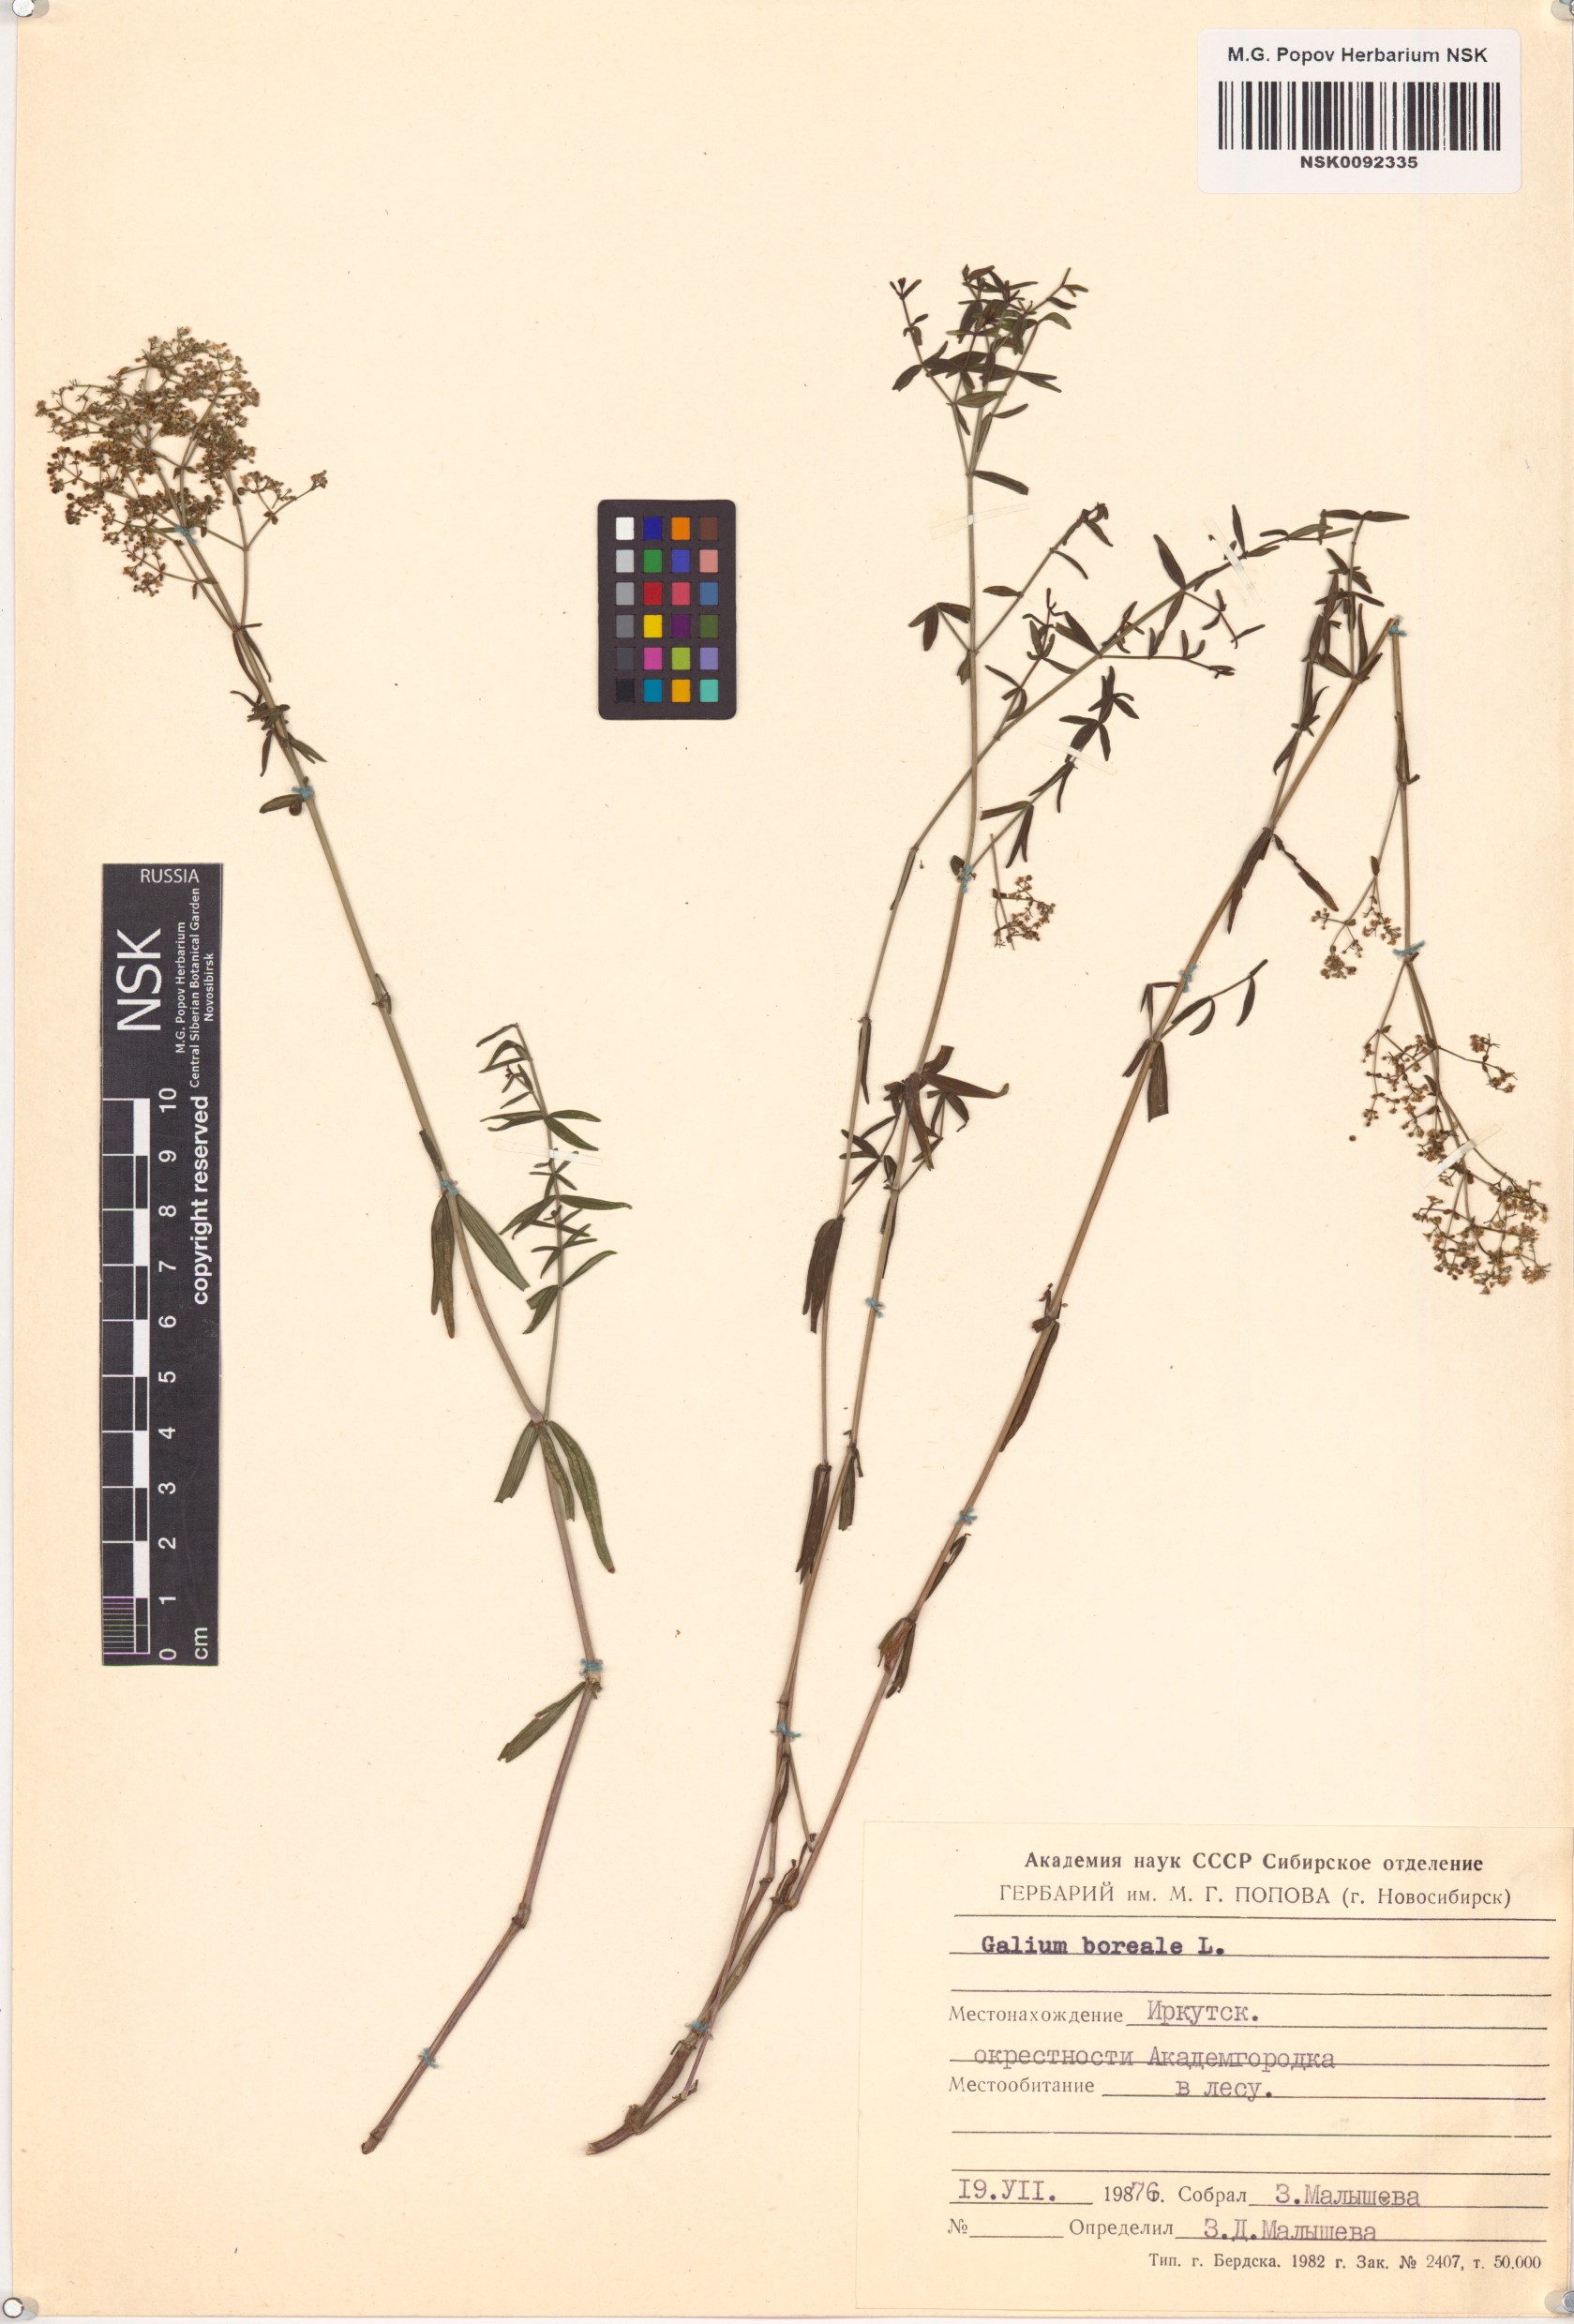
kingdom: Plantae
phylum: Tracheophyta
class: Magnoliopsida
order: Gentianales
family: Rubiaceae
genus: Galium
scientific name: Galium boreale
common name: Northern bedstraw
